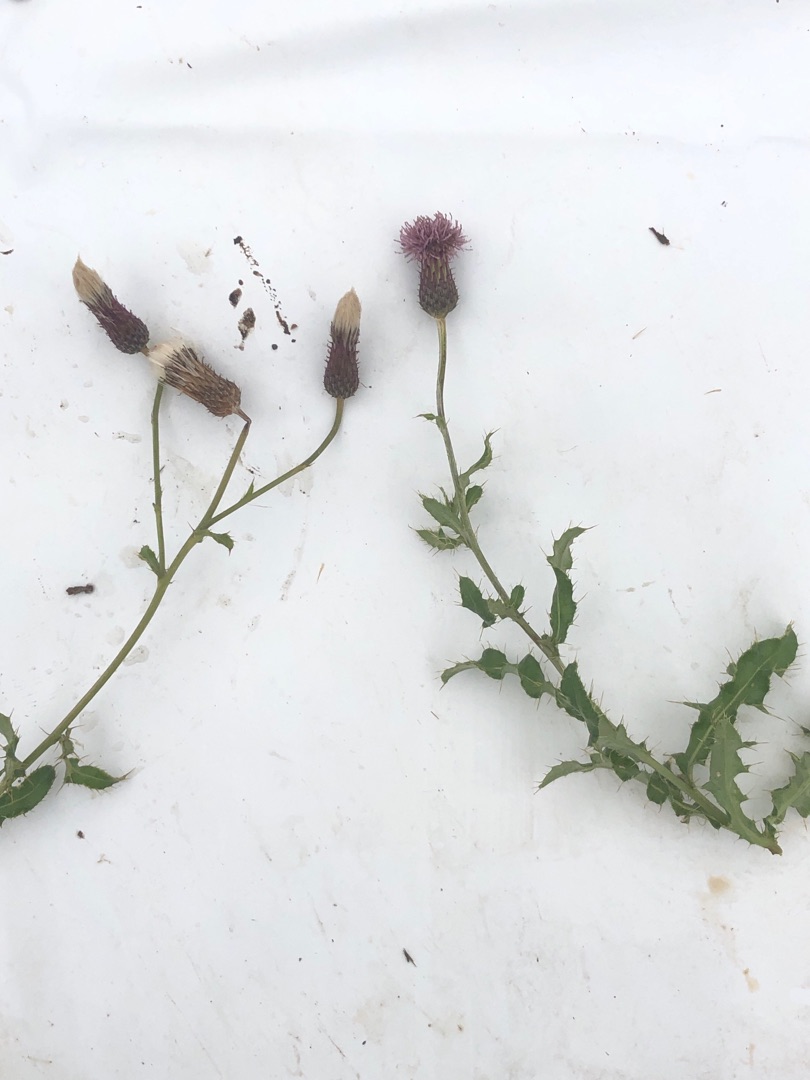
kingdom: Plantae
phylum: Tracheophyta
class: Magnoliopsida
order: Asterales
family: Asteraceae
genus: Cirsium
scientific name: Cirsium arvense
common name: Ager-tidsel
